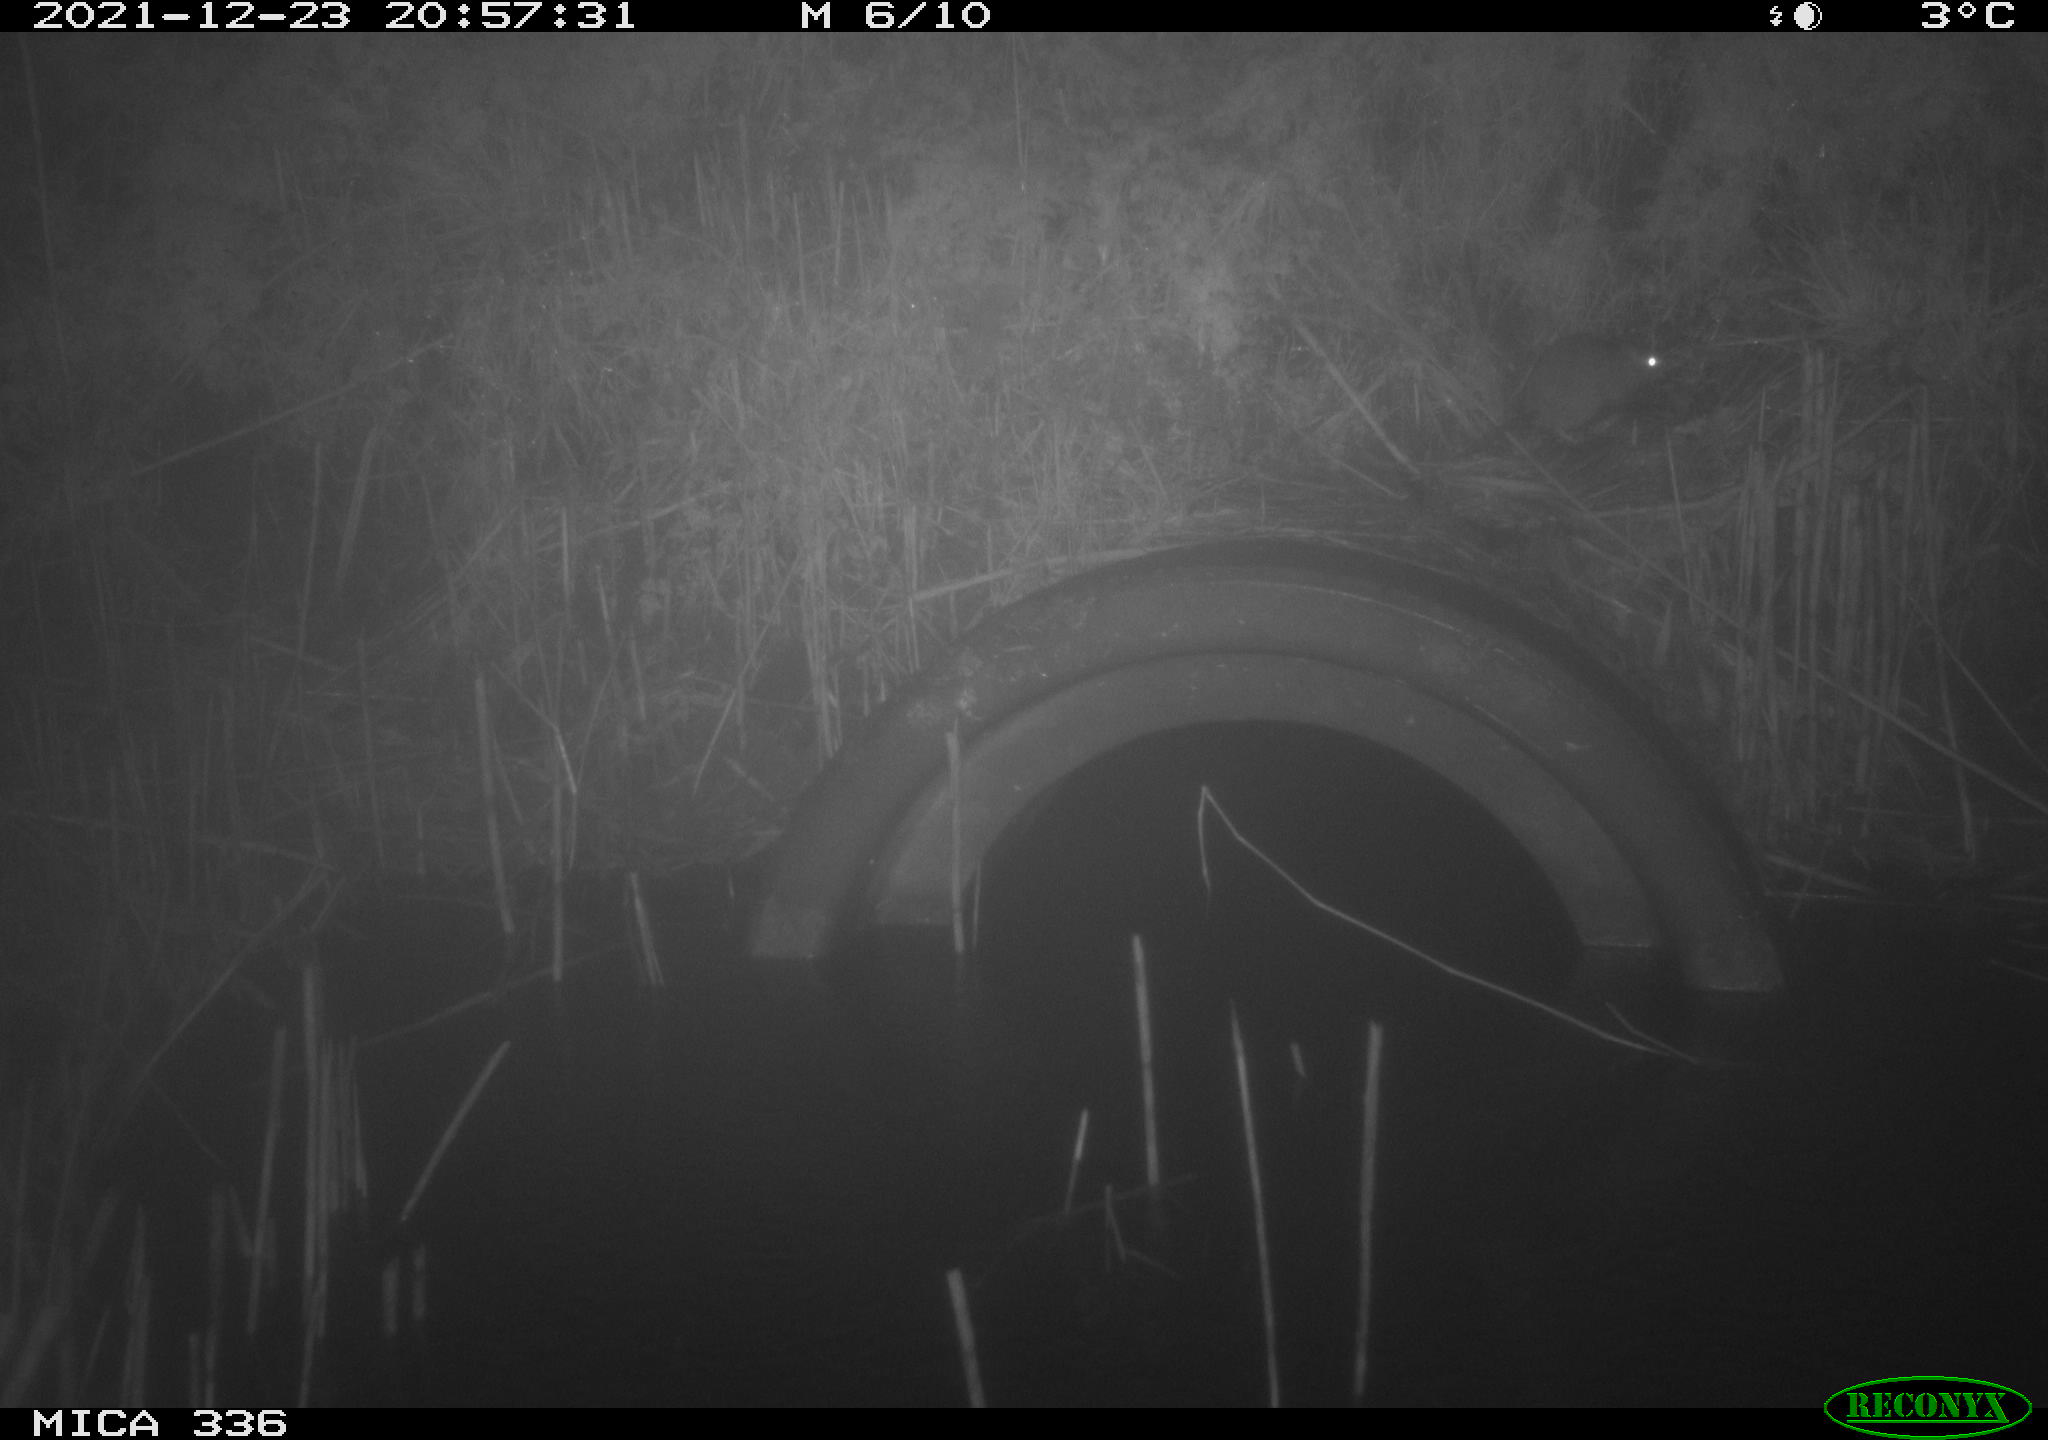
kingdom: Animalia
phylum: Chordata
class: Mammalia
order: Rodentia
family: Muridae
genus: Rattus
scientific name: Rattus norvegicus
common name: Brown rat
